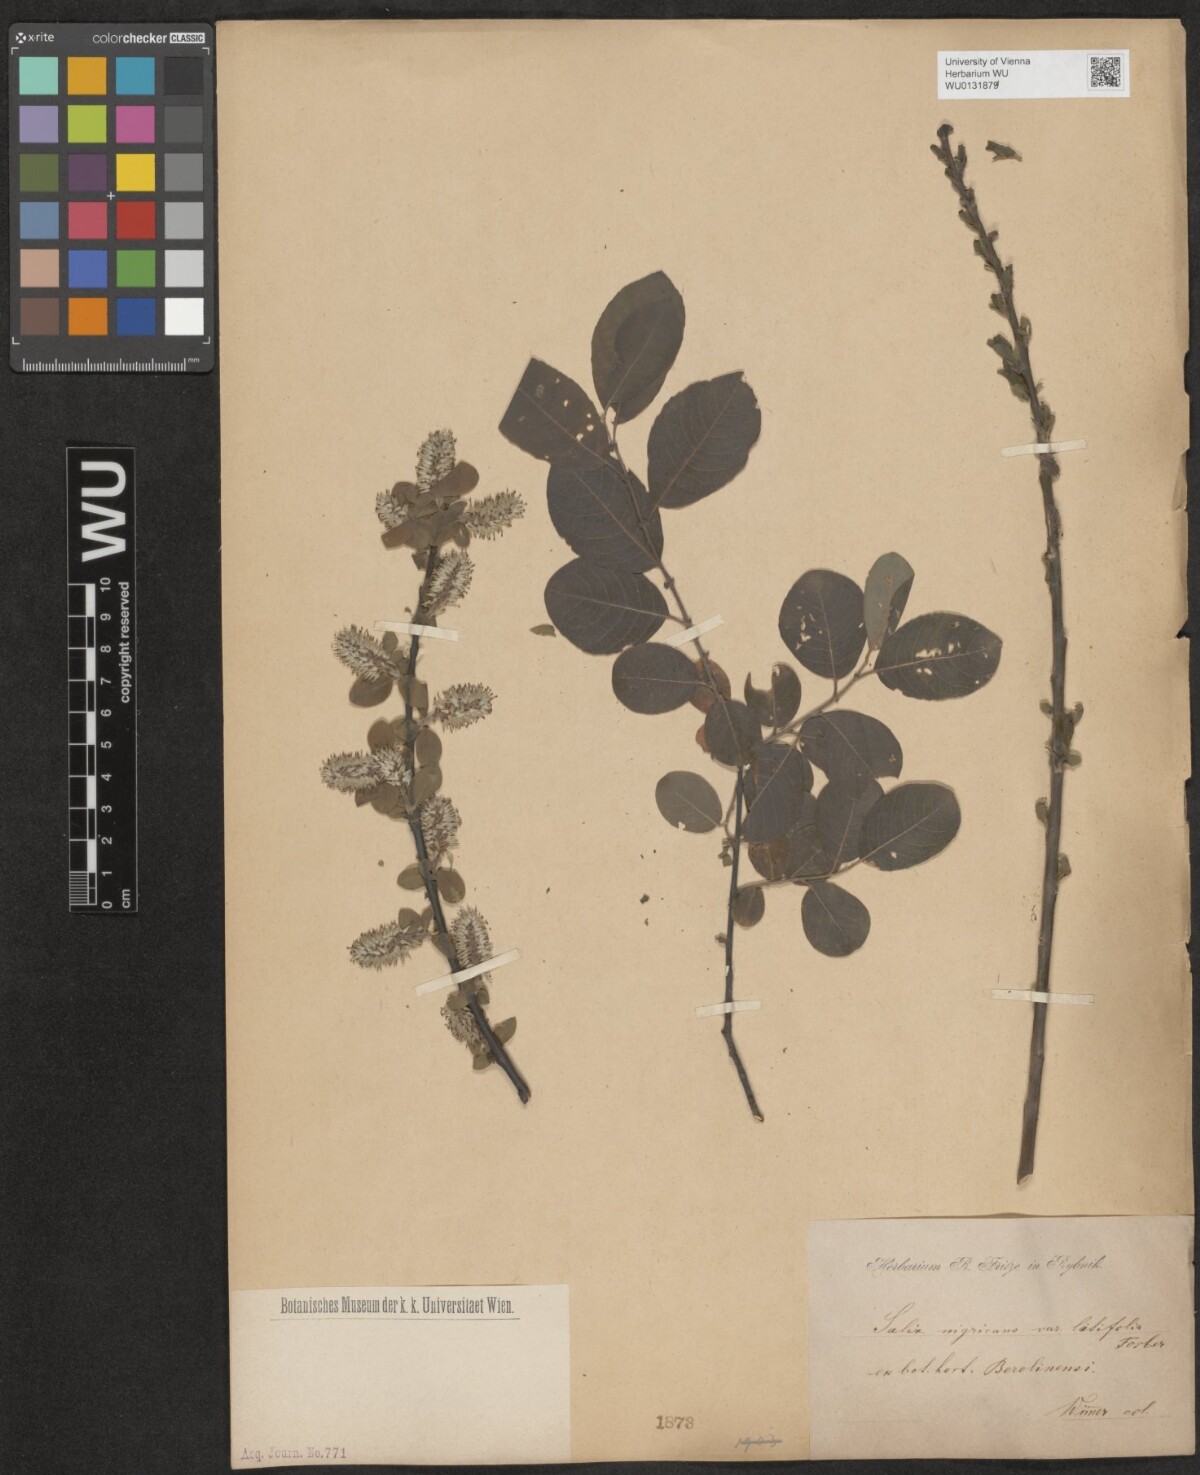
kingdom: Plantae
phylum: Tracheophyta
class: Magnoliopsida
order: Malpighiales
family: Salicaceae
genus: Salix
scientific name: Salix myrsinifolia
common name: Dark-leaved willow
